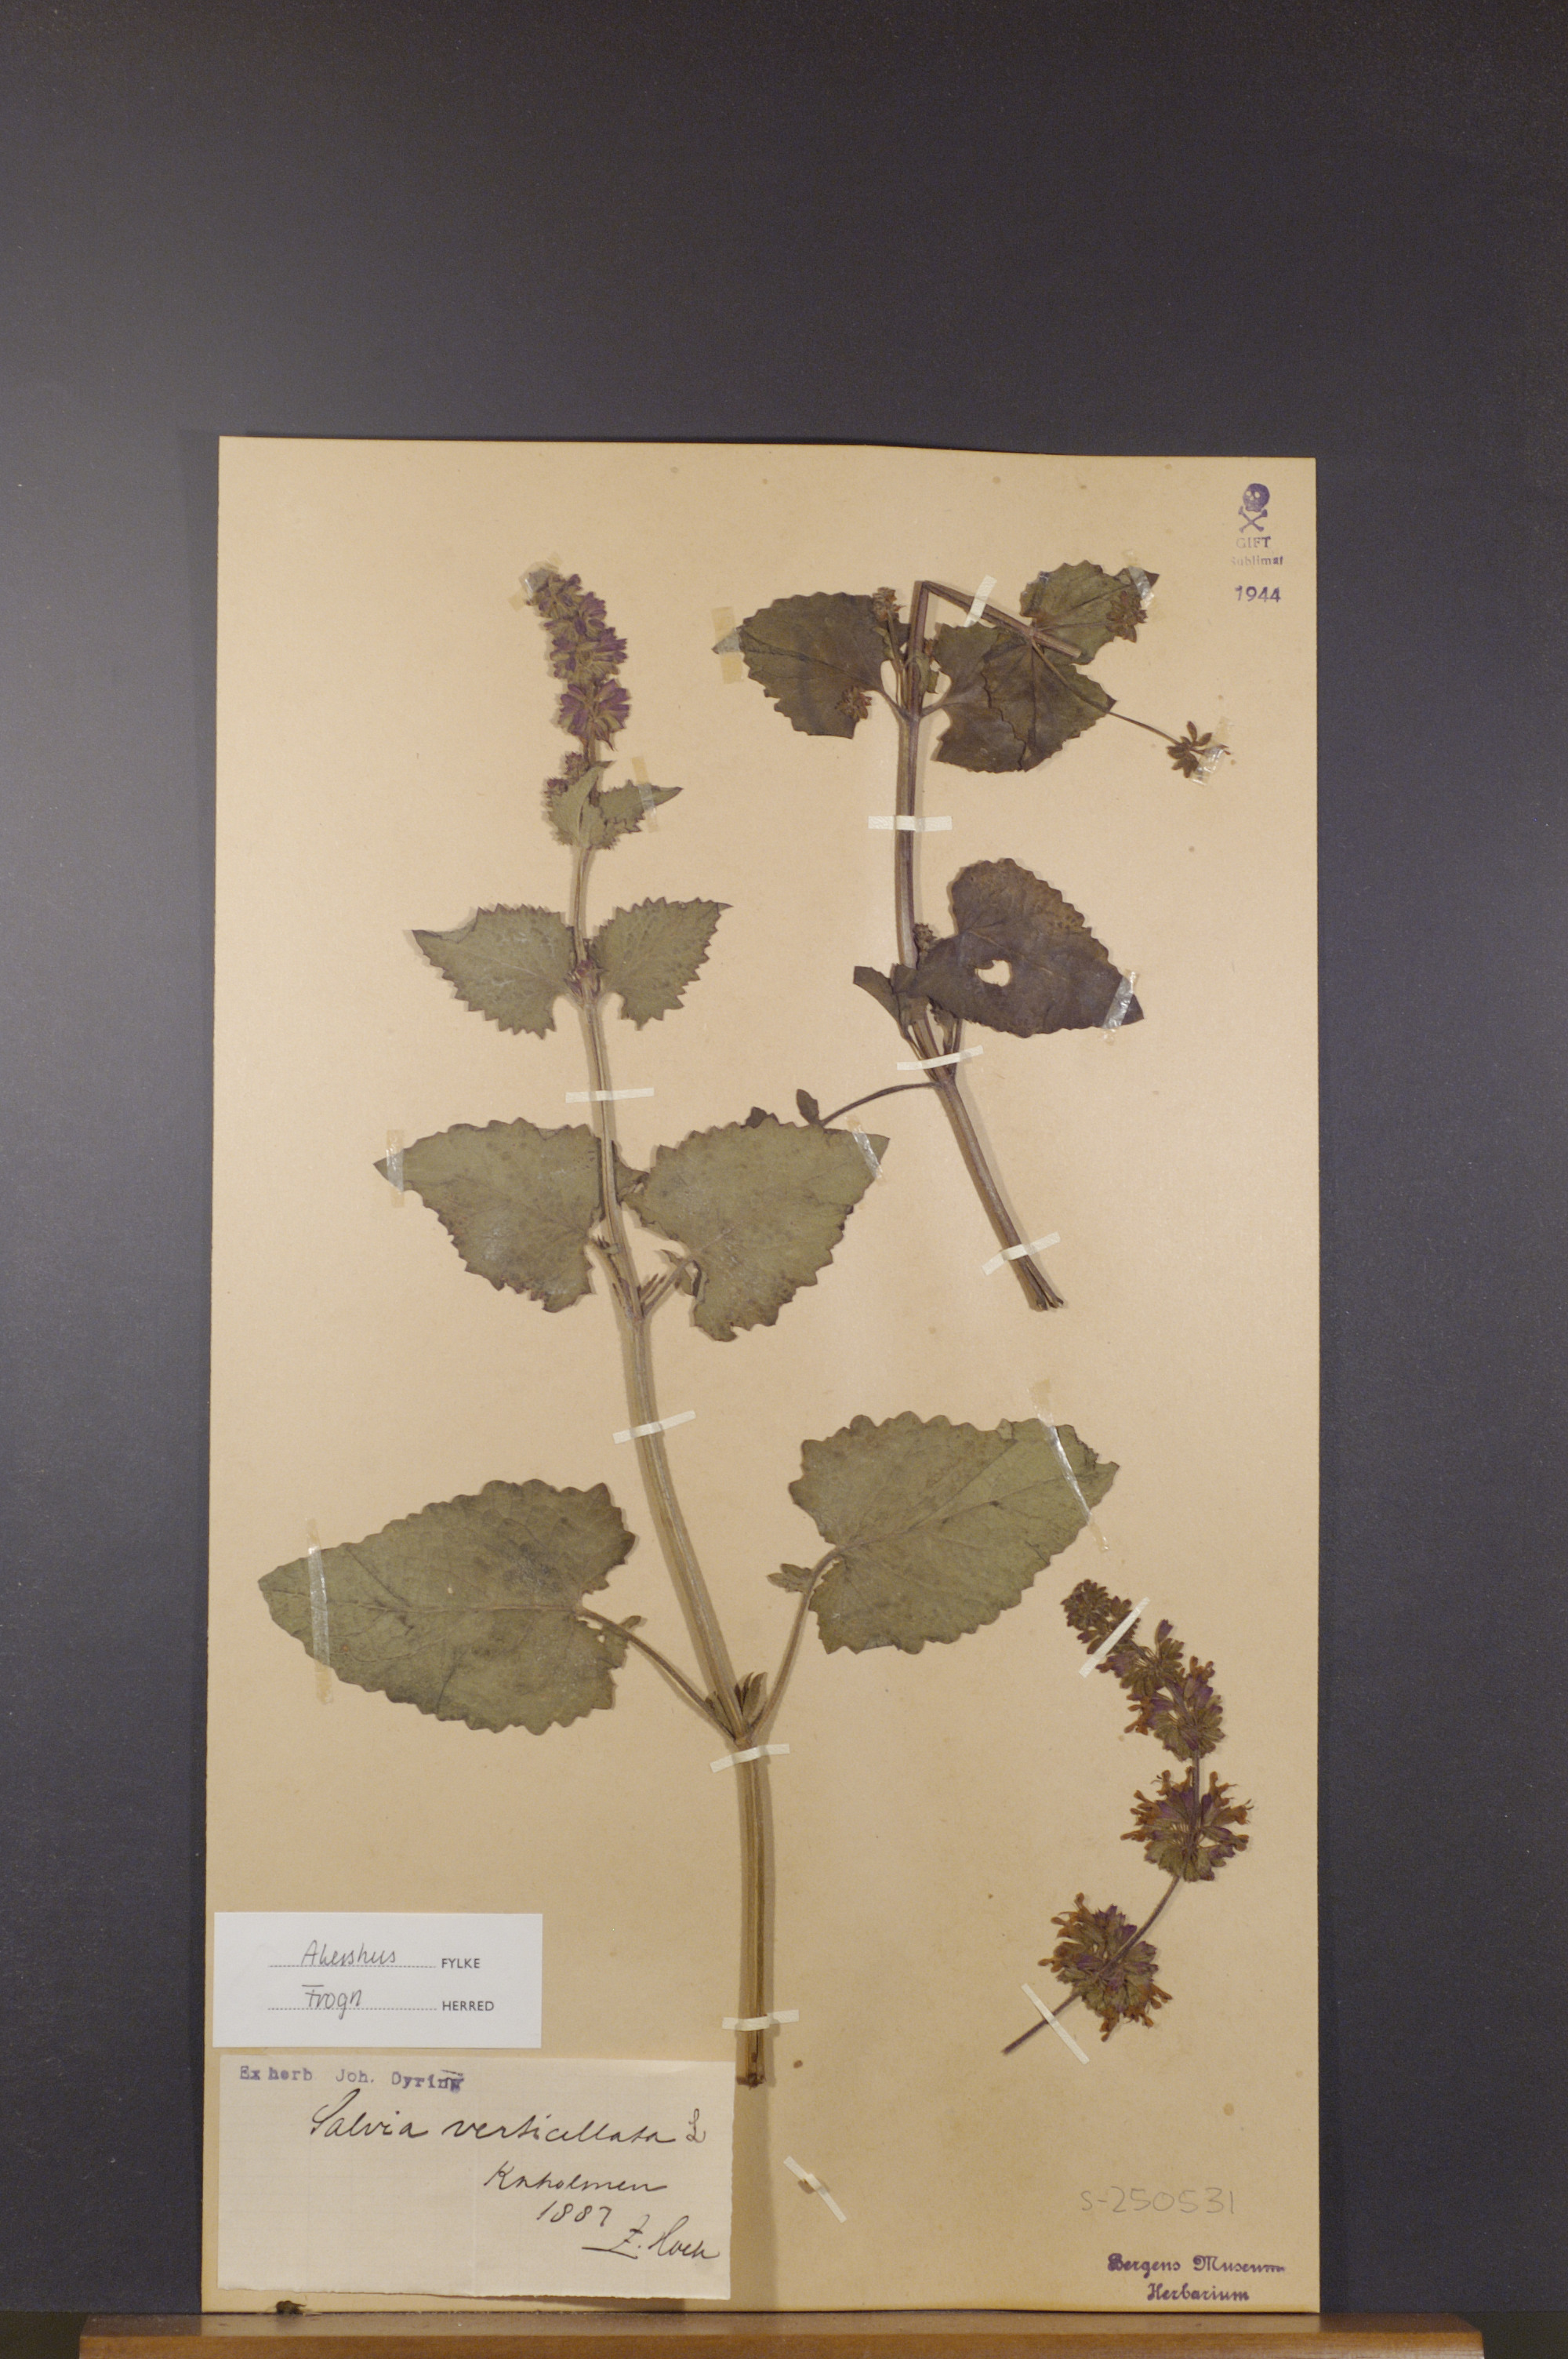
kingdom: Plantae
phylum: Tracheophyta
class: Magnoliopsida
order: Lamiales
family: Lamiaceae
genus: Salvia
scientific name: Salvia verticillata
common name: Whorled clary
